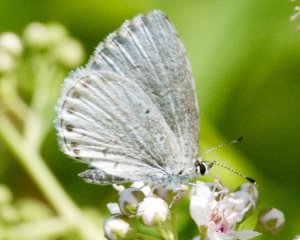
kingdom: Animalia
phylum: Arthropoda
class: Insecta
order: Lepidoptera
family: Lycaenidae
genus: Cyaniris
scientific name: Cyaniris neglecta
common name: Summer Azure
